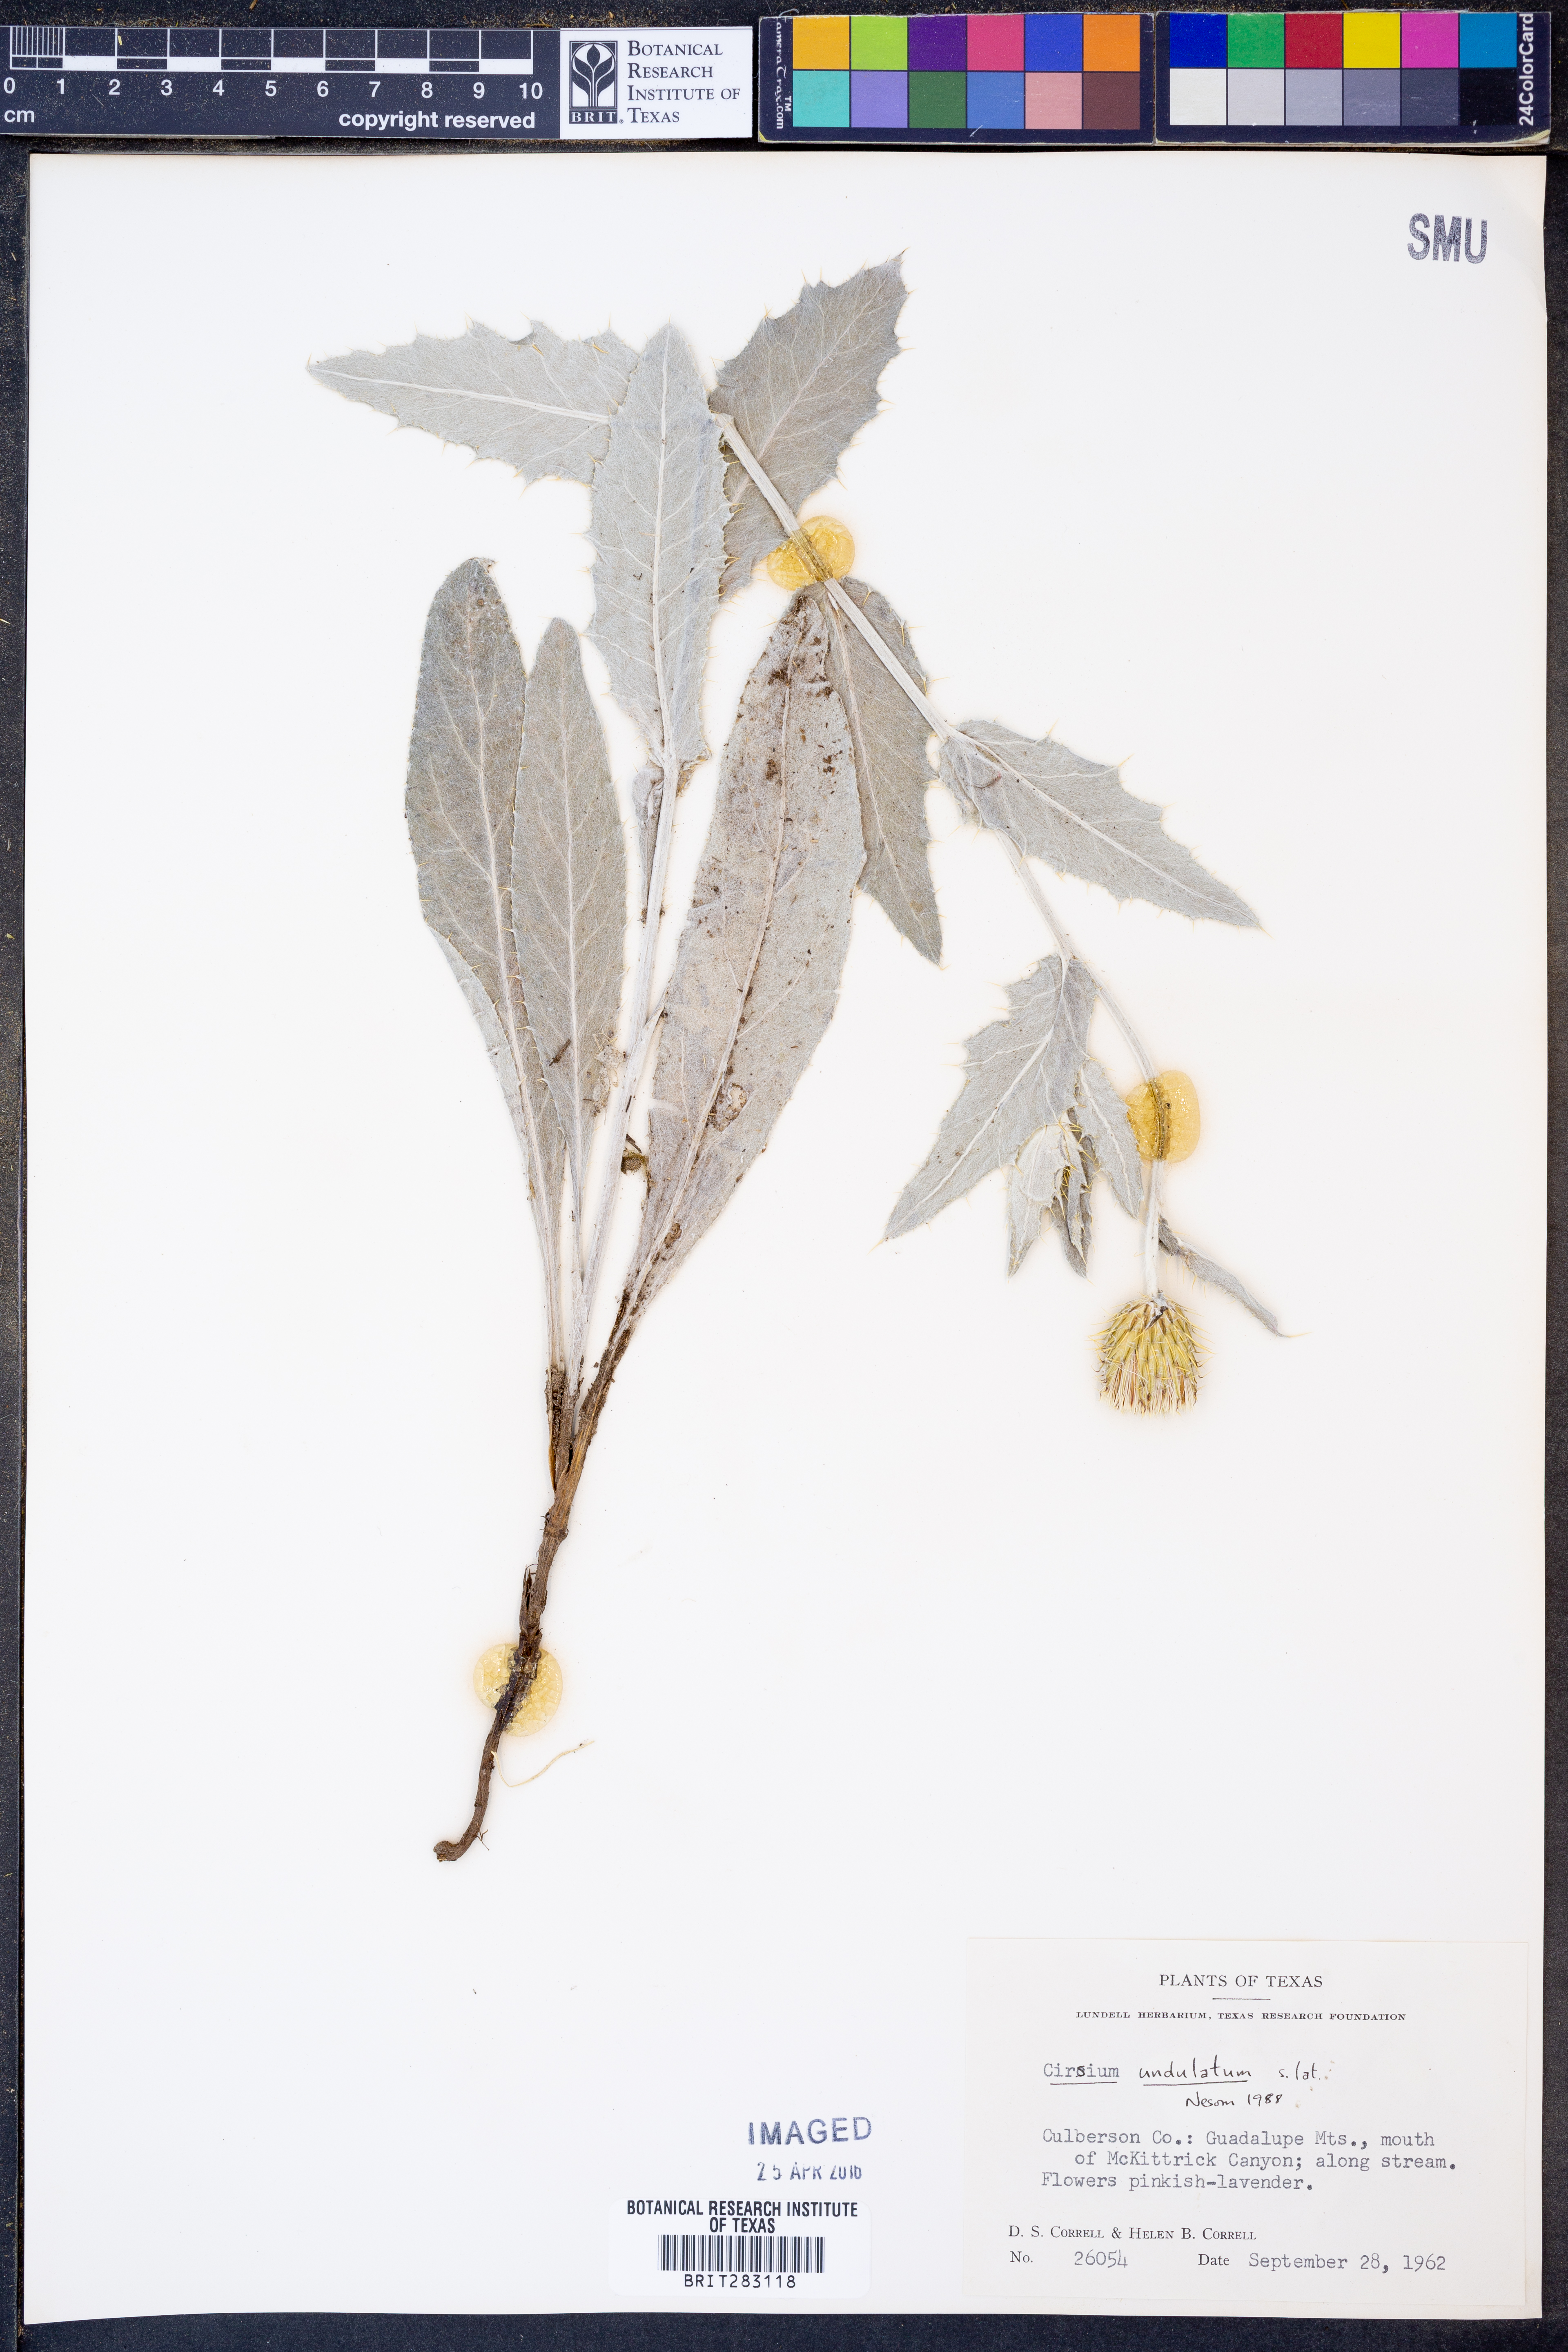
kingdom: Plantae
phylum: Tracheophyta
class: Magnoliopsida
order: Asterales
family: Asteraceae
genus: Cirsium
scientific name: Cirsium undulatum
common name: Pasture thistle
